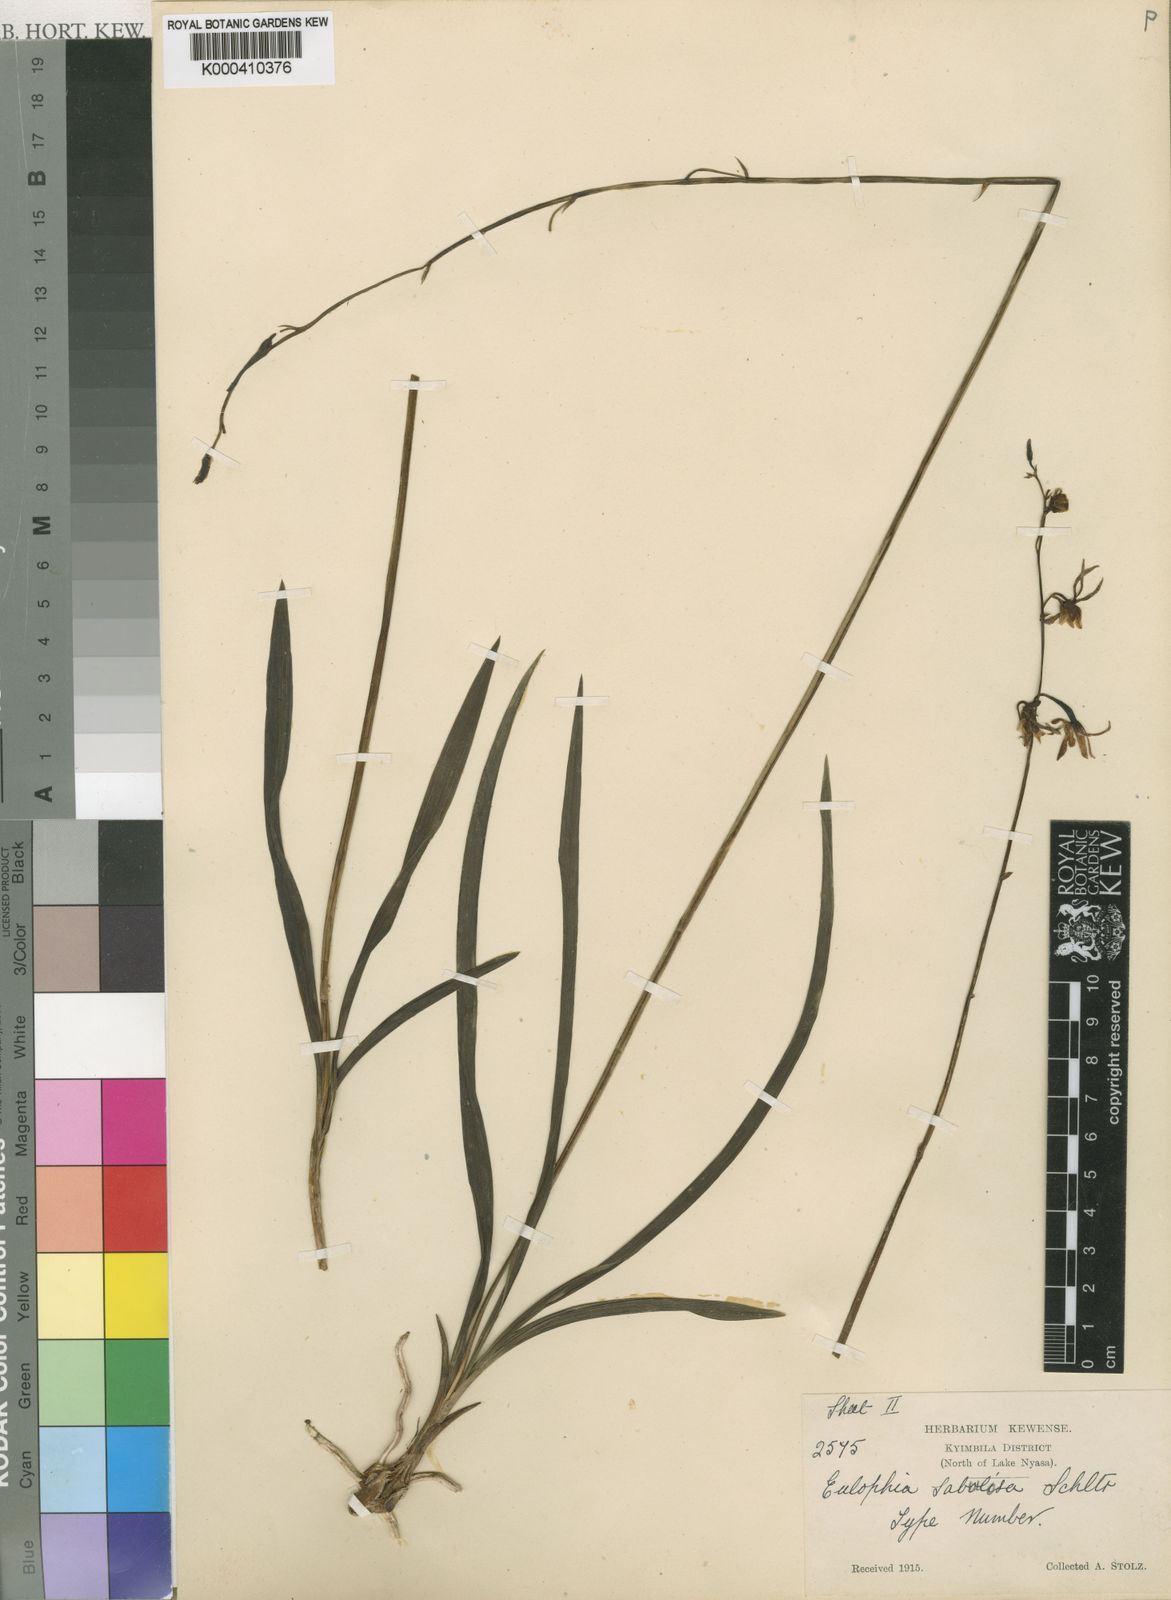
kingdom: Plantae
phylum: Tracheophyta
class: Liliopsida
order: Asparagales
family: Orchidaceae
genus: Eulophia
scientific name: Eulophia sabulosa
